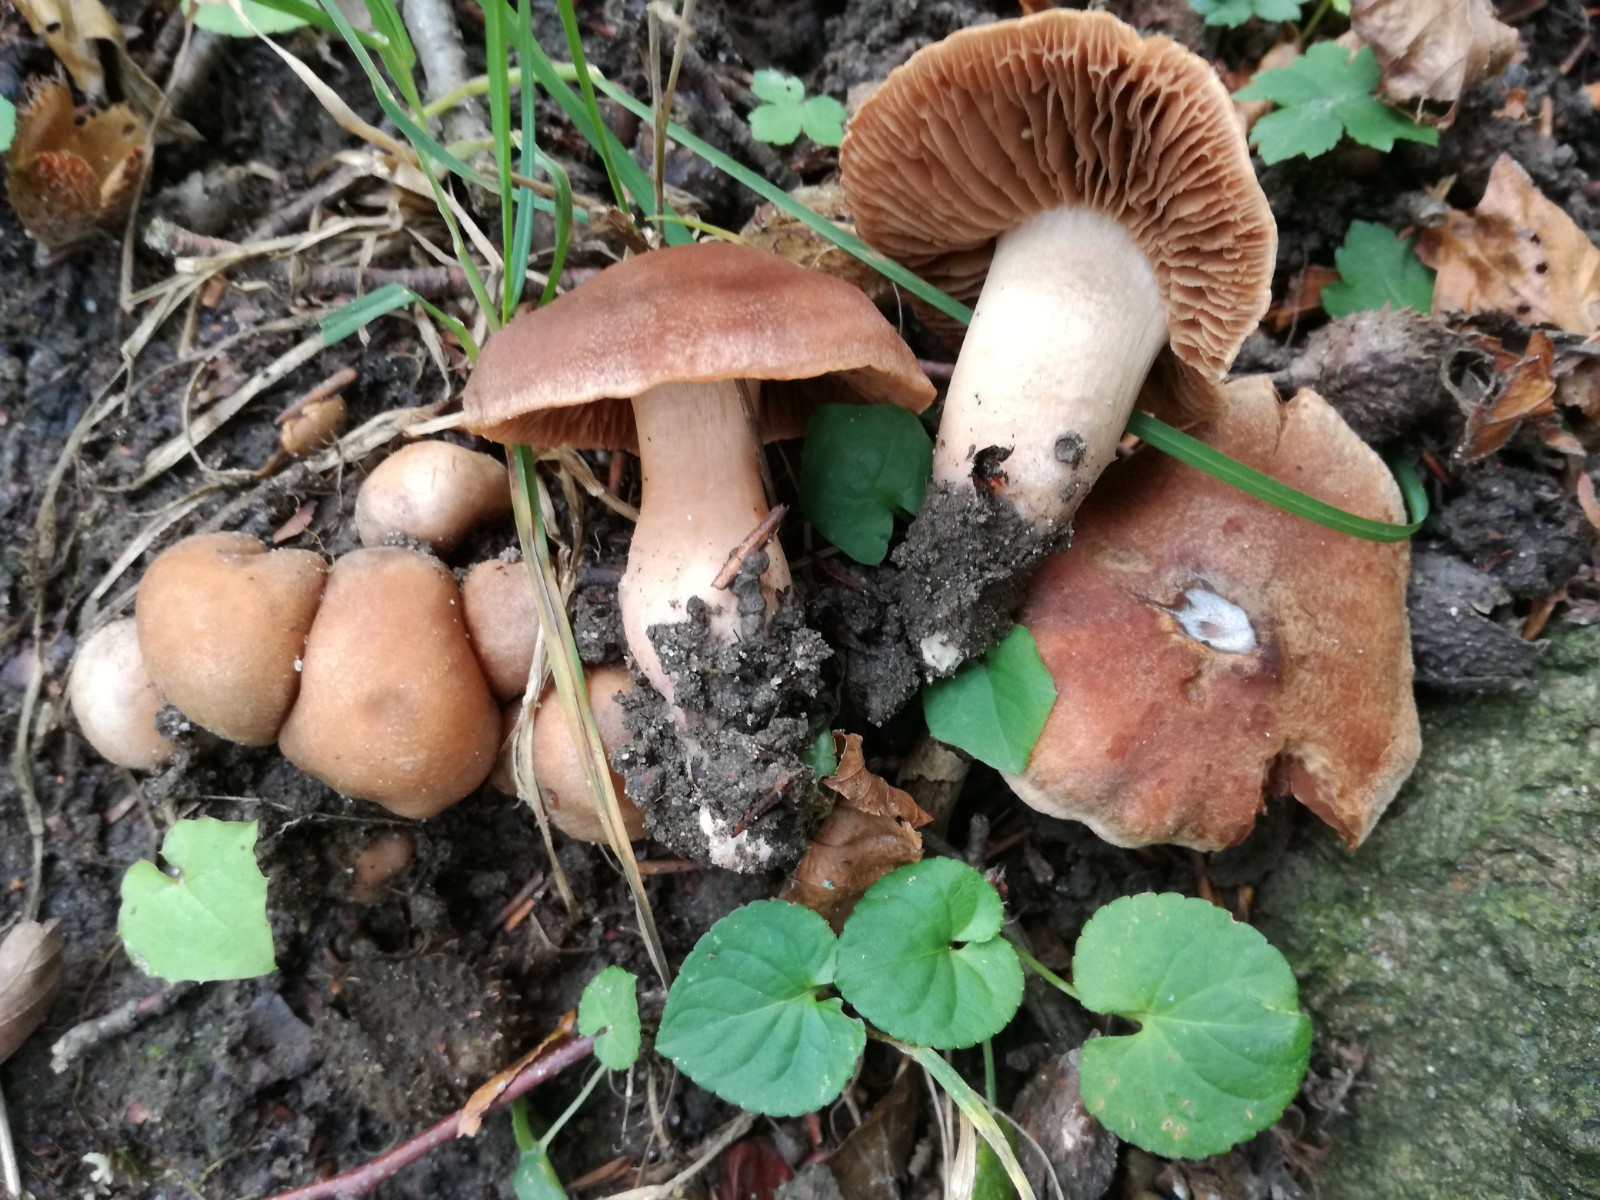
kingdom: Fungi
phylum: Basidiomycota
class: Agaricomycetes
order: Agaricales
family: Cortinariaceae
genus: Cortinarius
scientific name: Cortinarius spisnii
